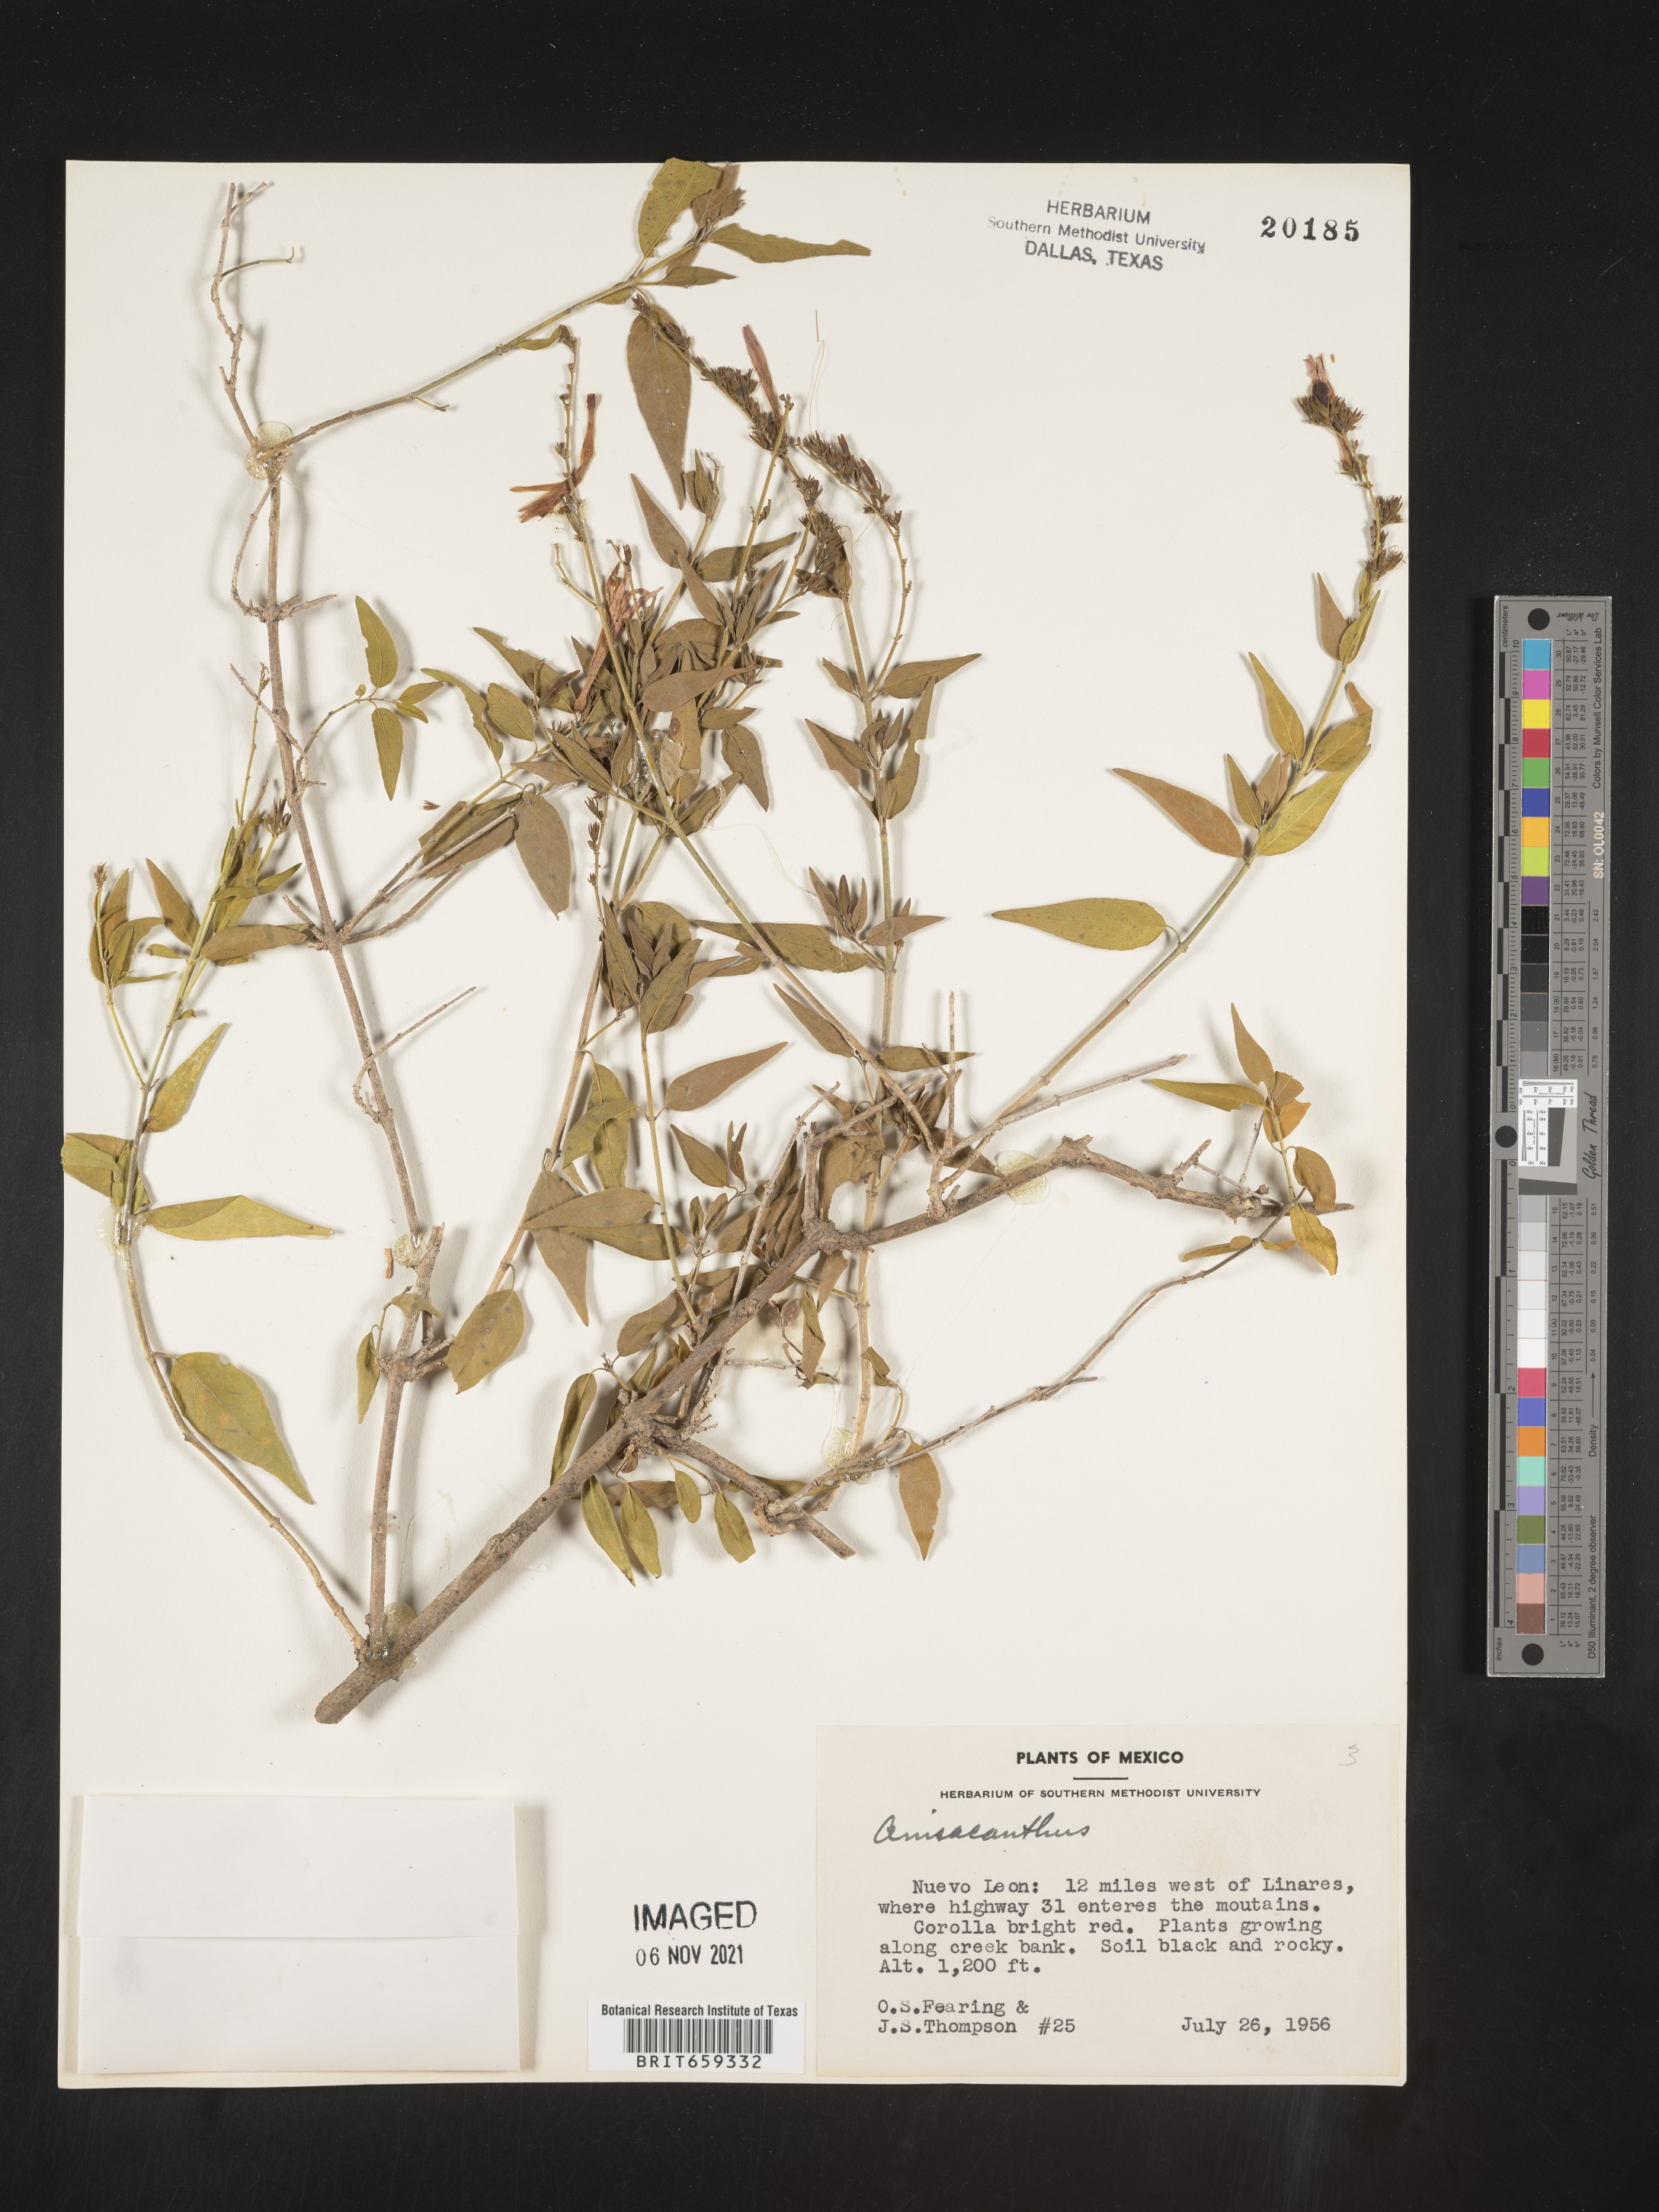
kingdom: Plantae
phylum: Tracheophyta
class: Magnoliopsida
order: Lamiales
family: Acanthaceae
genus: Anisacanthus
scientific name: Anisacanthus
